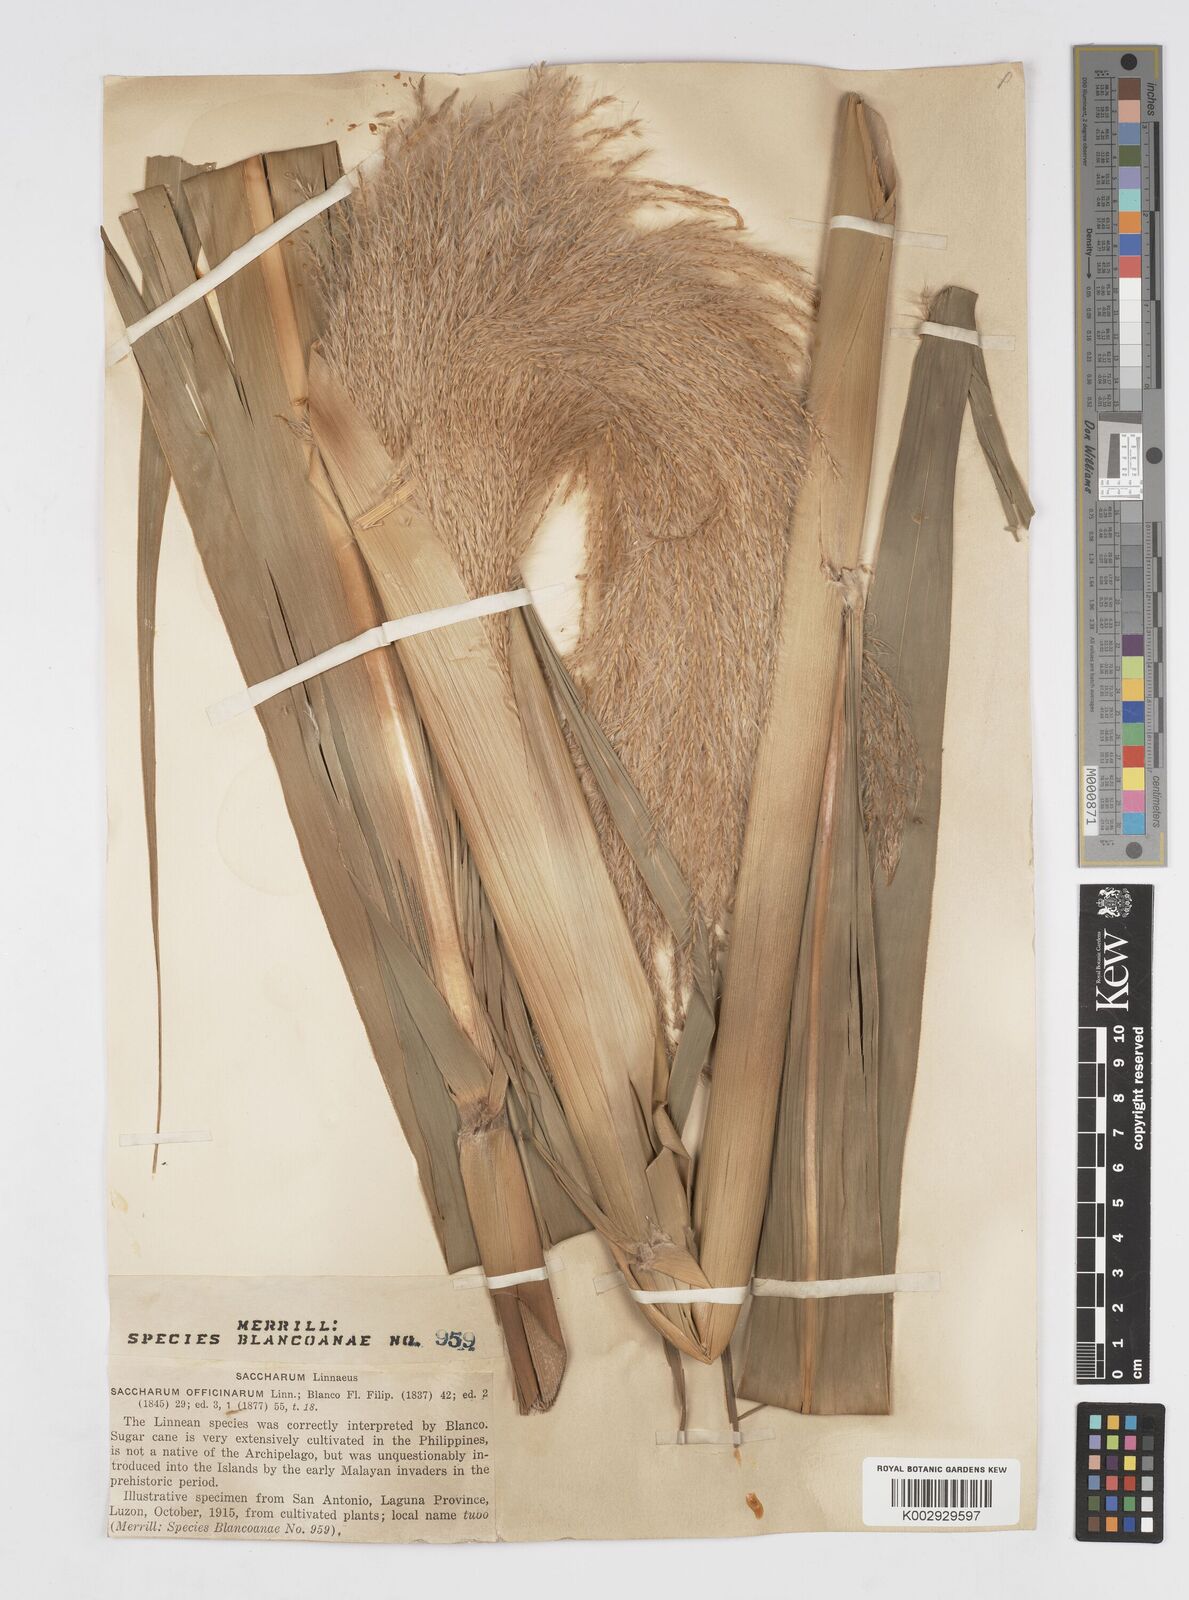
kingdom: Plantae
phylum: Tracheophyta
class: Liliopsida
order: Poales
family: Poaceae
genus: Saccharum
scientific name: Saccharum officinarum
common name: Sugarcane
